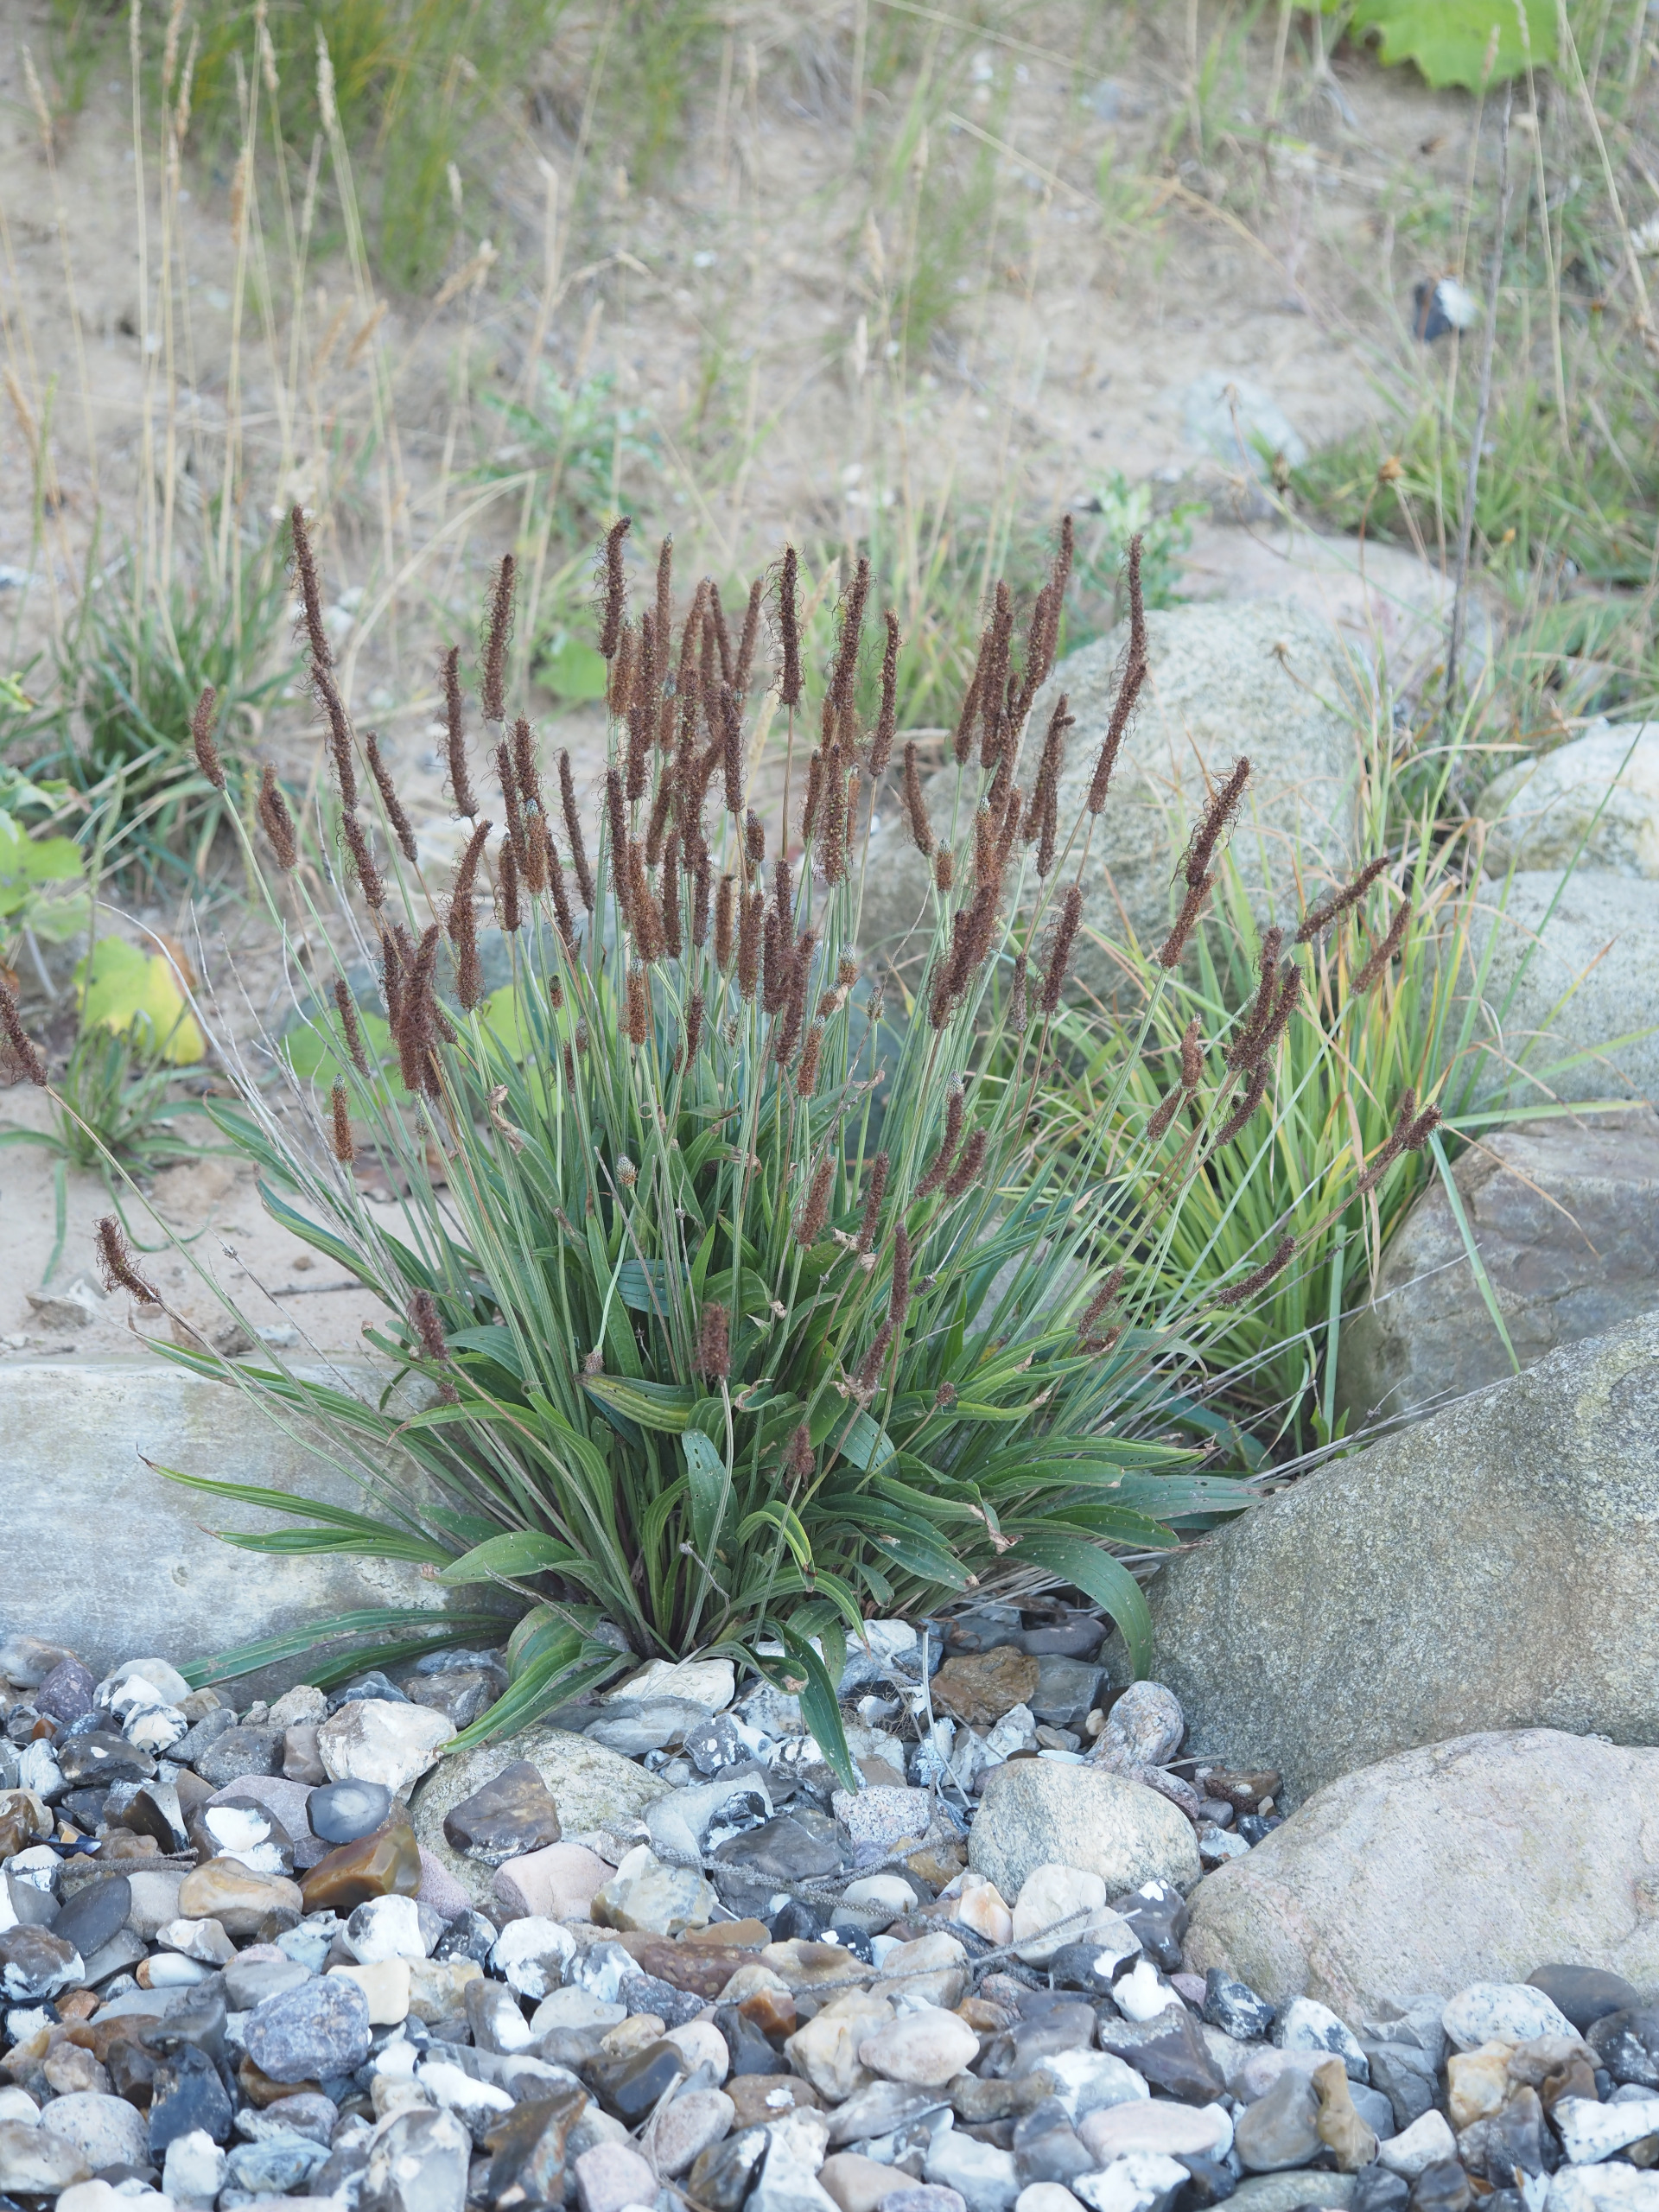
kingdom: Plantae
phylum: Tracheophyta
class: Magnoliopsida
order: Lamiales
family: Plantaginaceae
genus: Plantago
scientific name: Plantago lanceolata
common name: Lancet-vejbred
